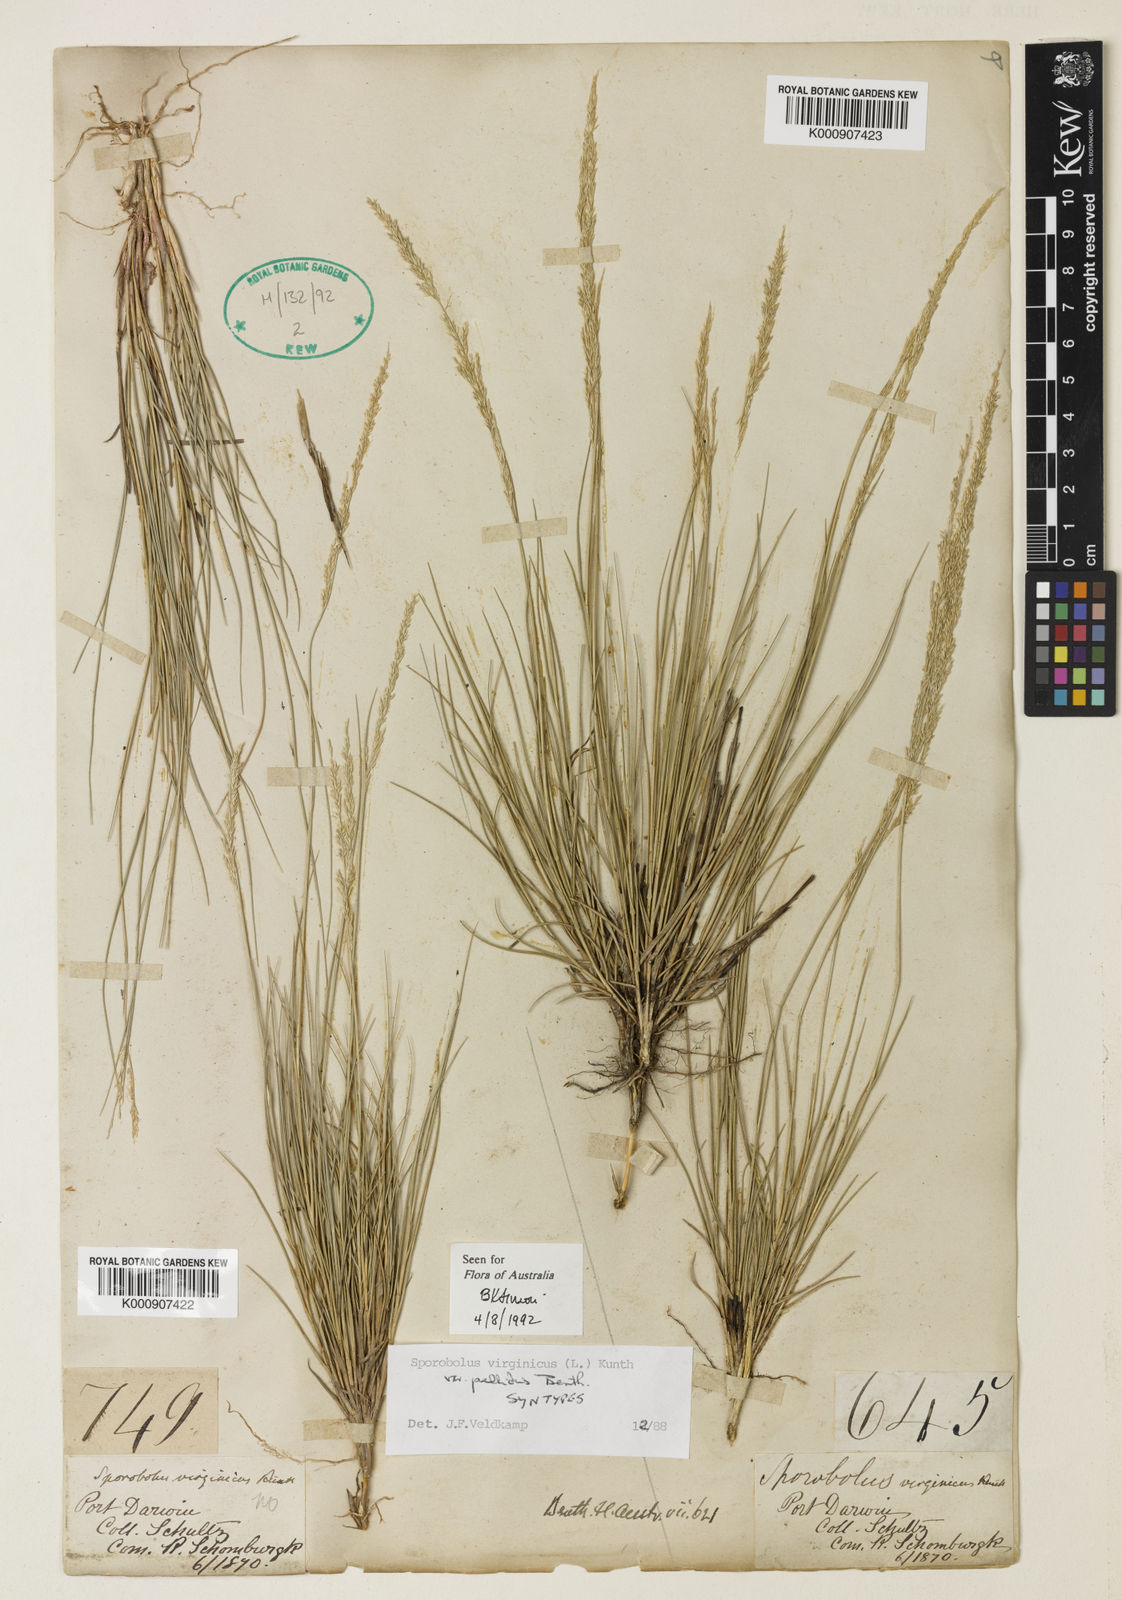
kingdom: Plantae
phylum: Tracheophyta
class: Liliopsida
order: Poales
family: Poaceae
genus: Sporobolus
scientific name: Sporobolus virginicus
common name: Beach dropseed
